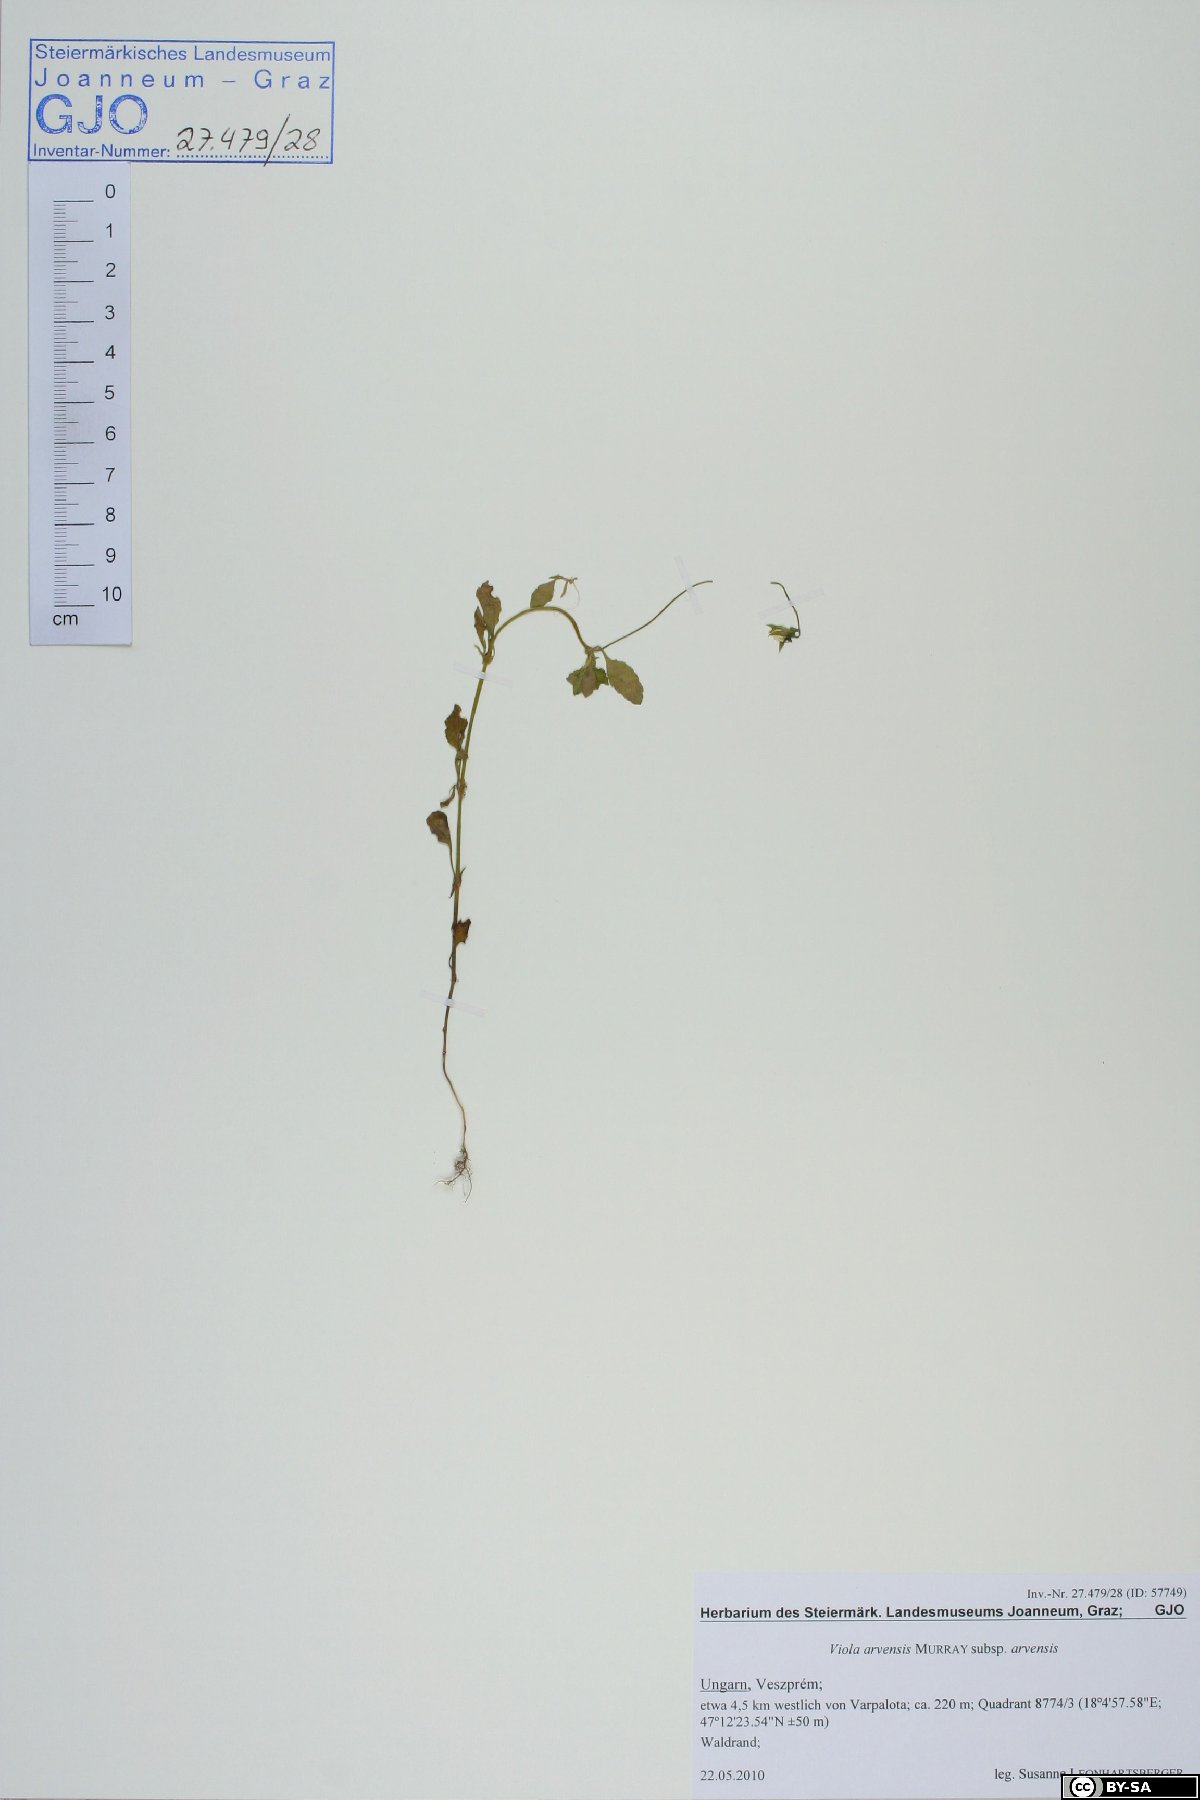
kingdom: Plantae
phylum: Tracheophyta
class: Magnoliopsida
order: Malpighiales
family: Violaceae
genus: Viola
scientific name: Viola arvensis
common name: Field pansy
